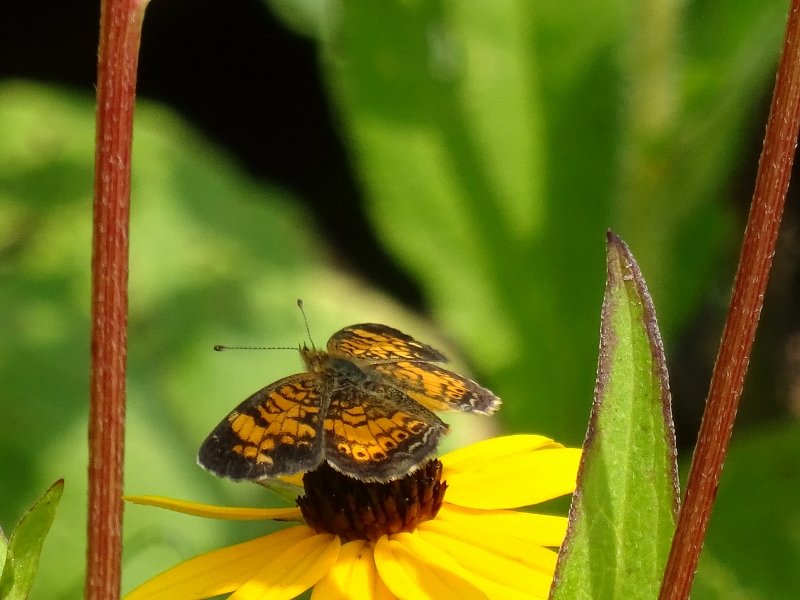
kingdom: Animalia
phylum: Arthropoda
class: Insecta
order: Lepidoptera
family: Nymphalidae
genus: Phyciodes
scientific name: Phyciodes tharos
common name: Pearl Crescent
